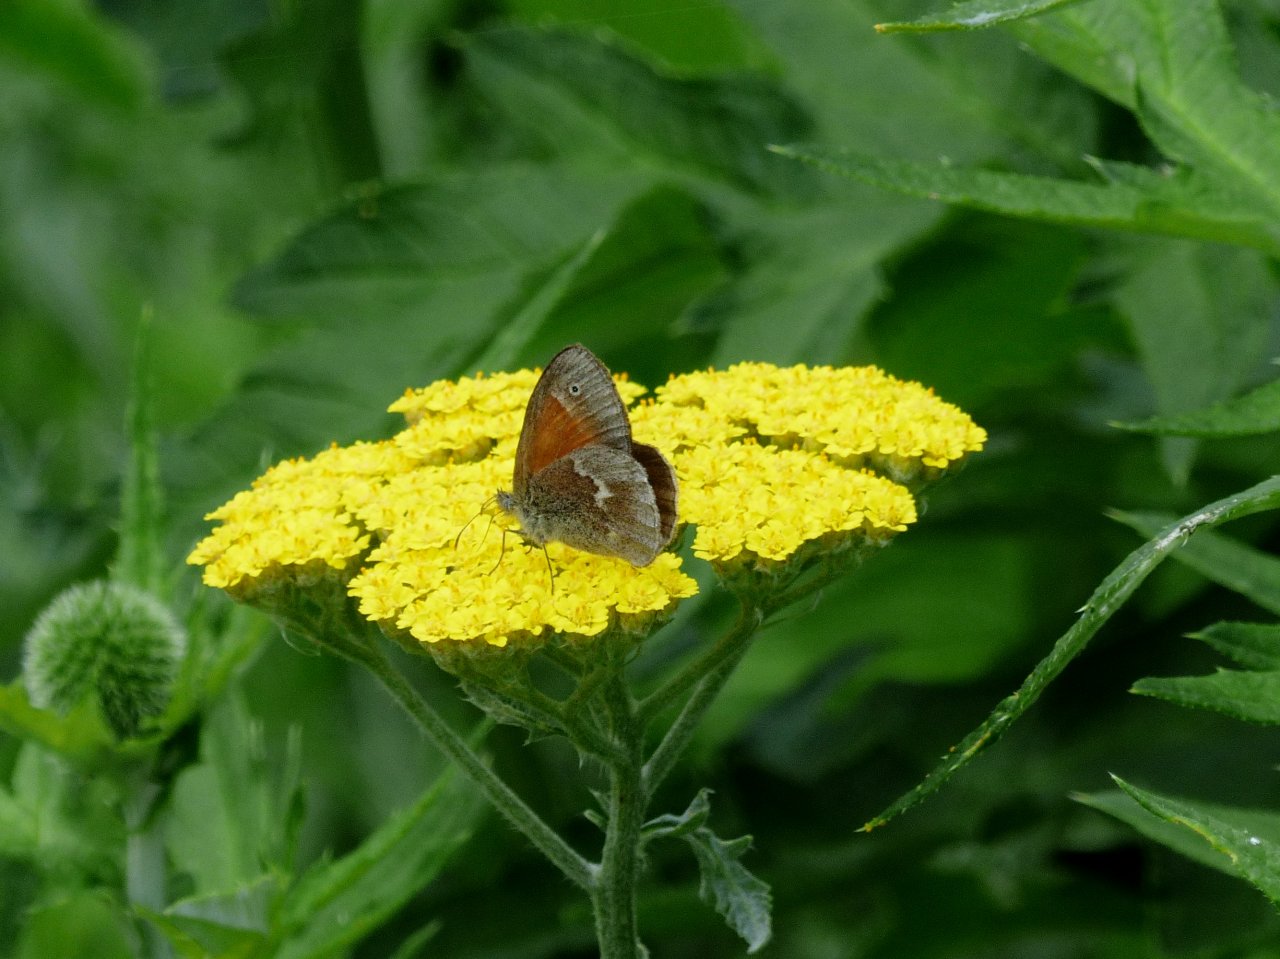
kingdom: Animalia
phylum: Arthropoda
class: Insecta
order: Lepidoptera
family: Nymphalidae
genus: Coenonympha
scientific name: Coenonympha tullia
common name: Large Heath
